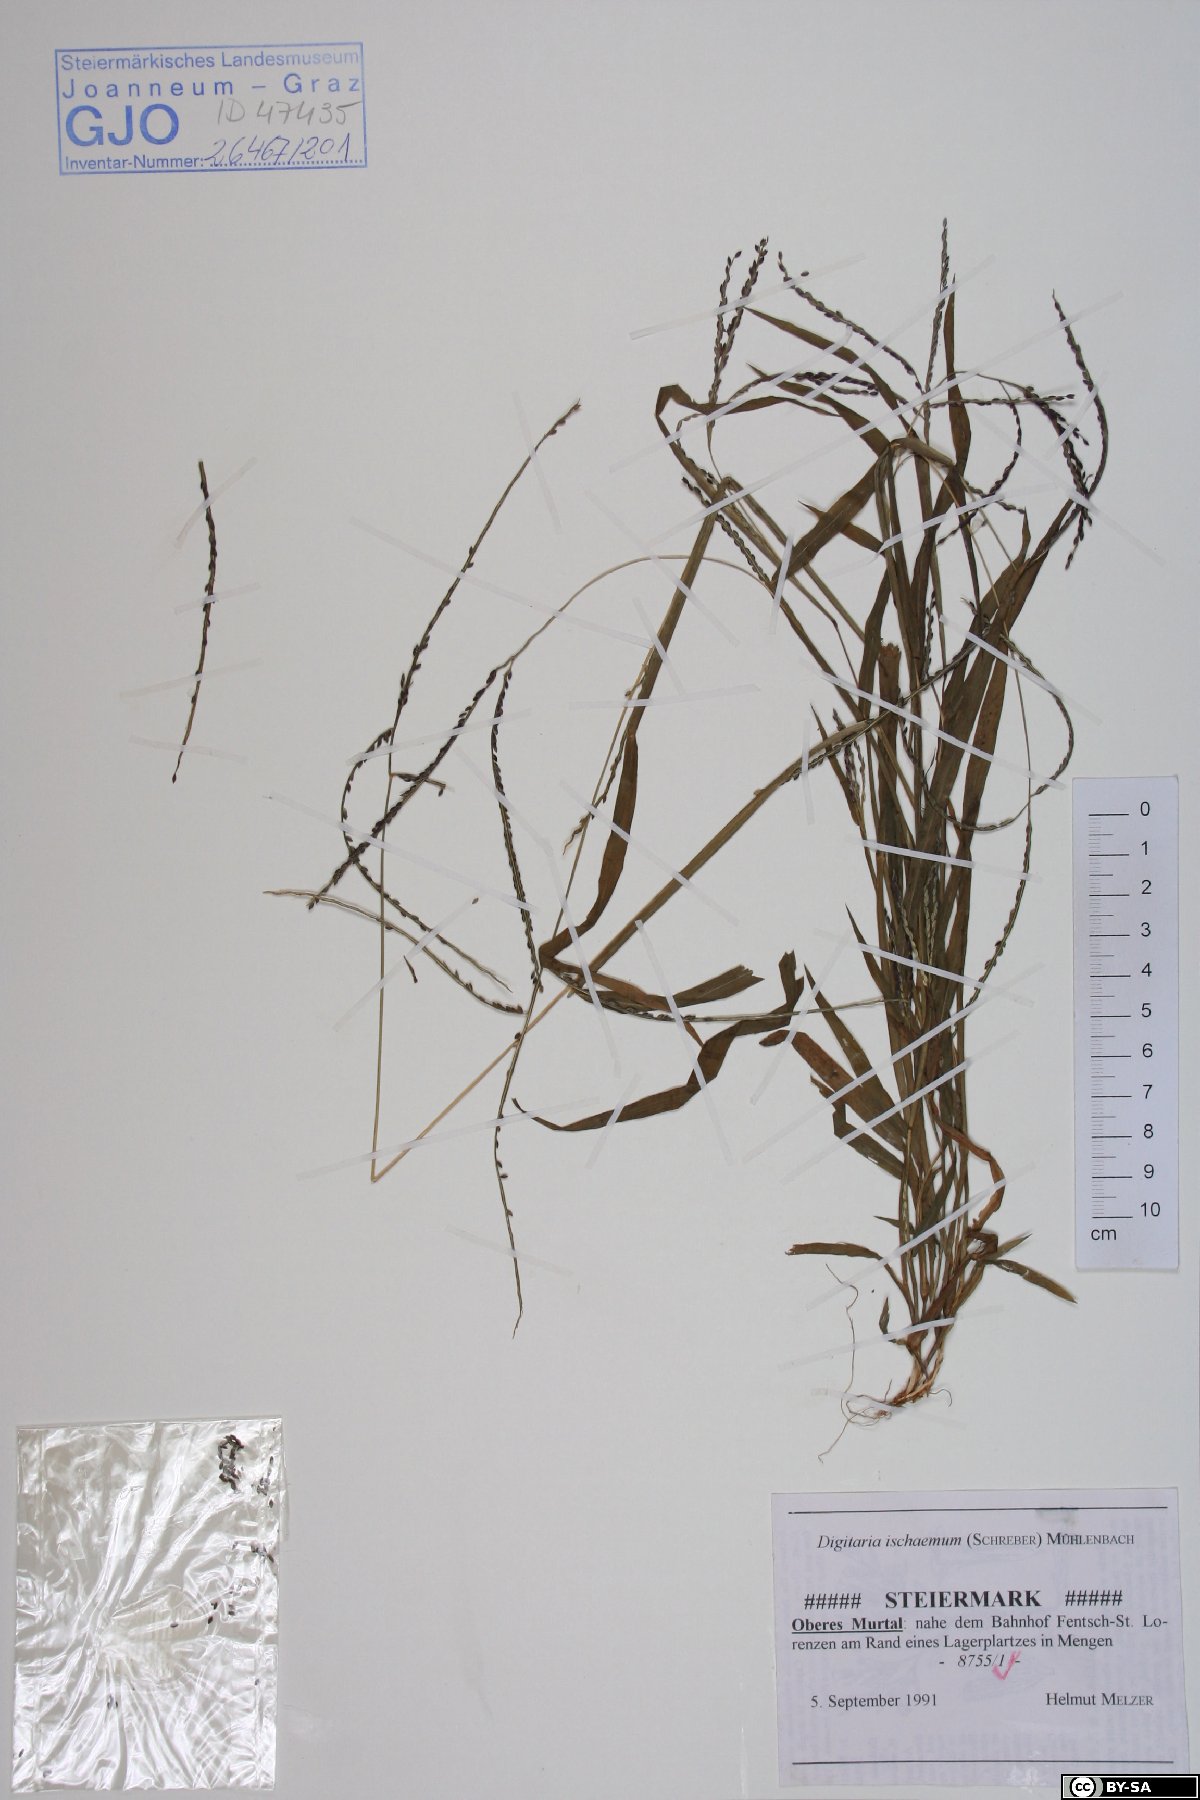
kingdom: Plantae
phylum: Tracheophyta
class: Liliopsida
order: Poales
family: Poaceae
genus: Digitaria
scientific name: Digitaria ischaemum
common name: Smooth crabgrass
